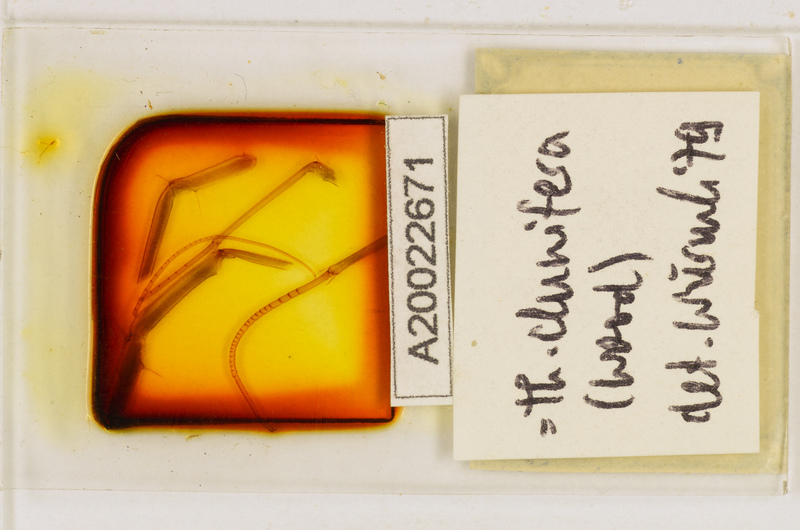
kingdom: Animalia
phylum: Arthropoda
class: Chilopoda
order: Scutigeromorpha
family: Scutigeridae
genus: Thereuopoda
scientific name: Thereuopoda clunifera
